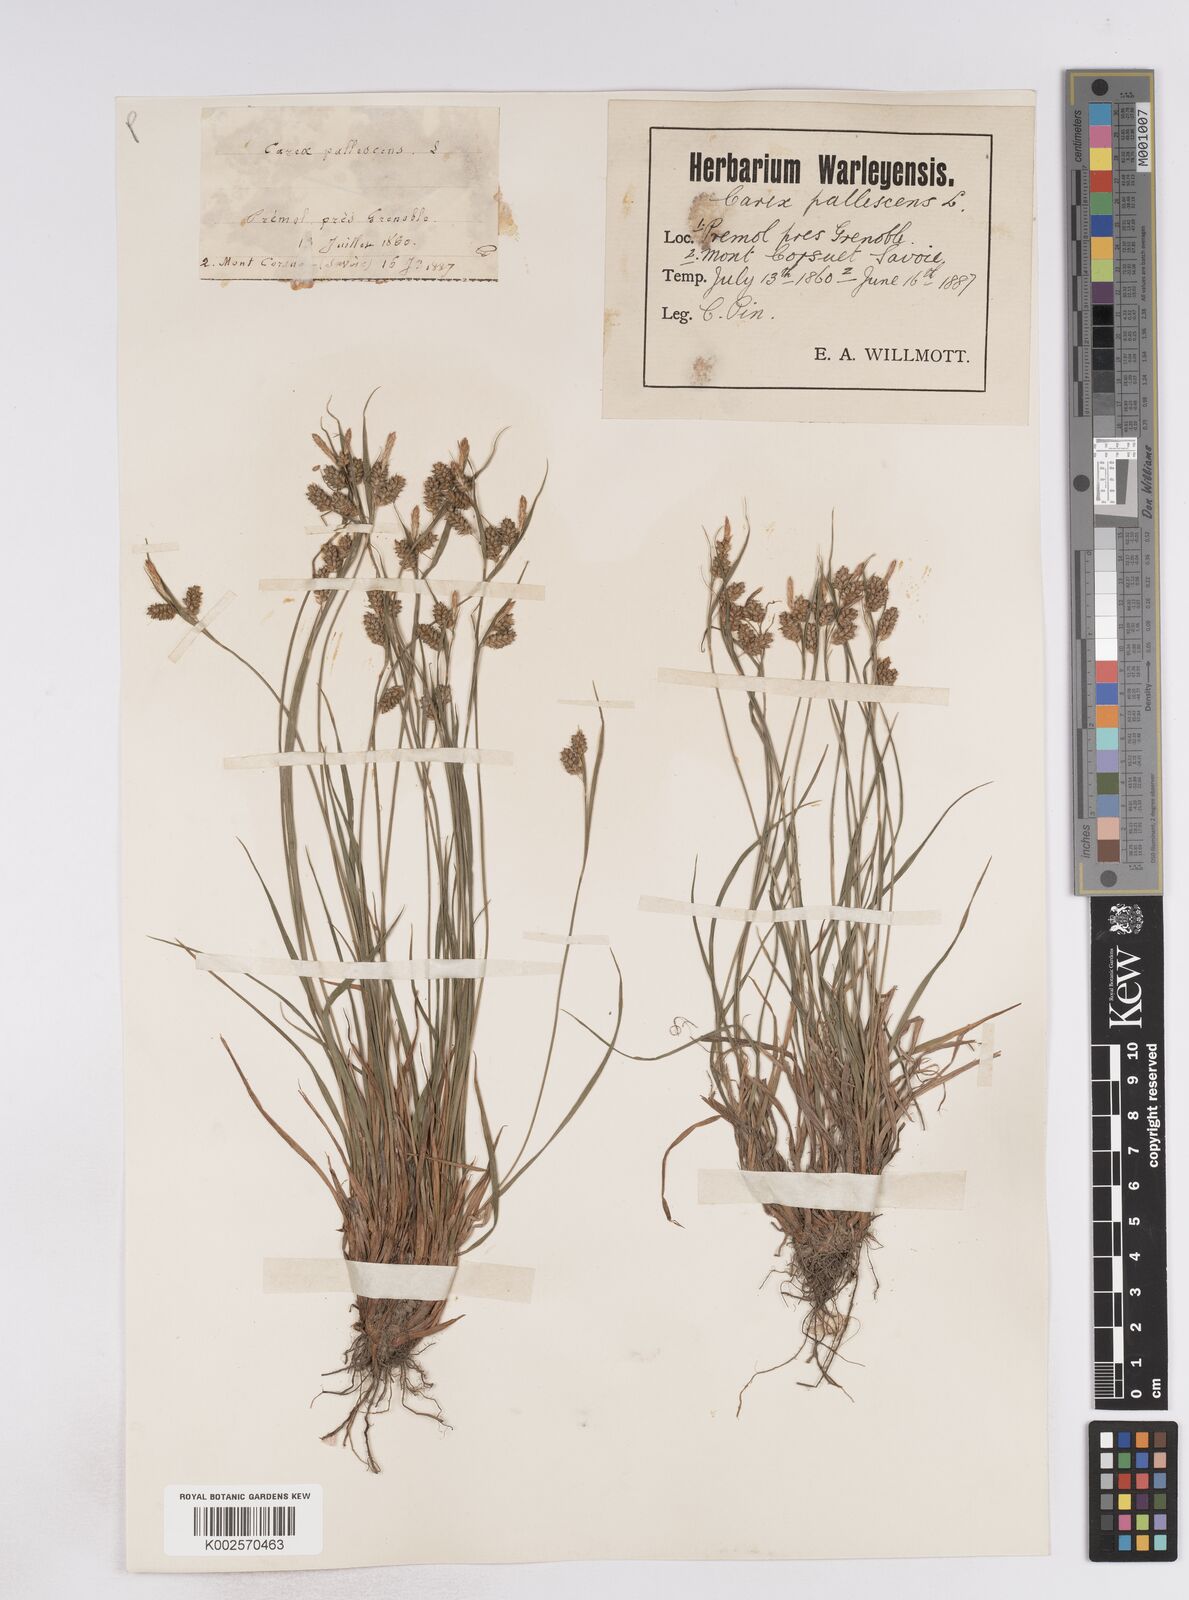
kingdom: Plantae
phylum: Tracheophyta
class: Liliopsida
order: Poales
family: Cyperaceae
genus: Carex
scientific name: Carex pallescens
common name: Pale sedge
